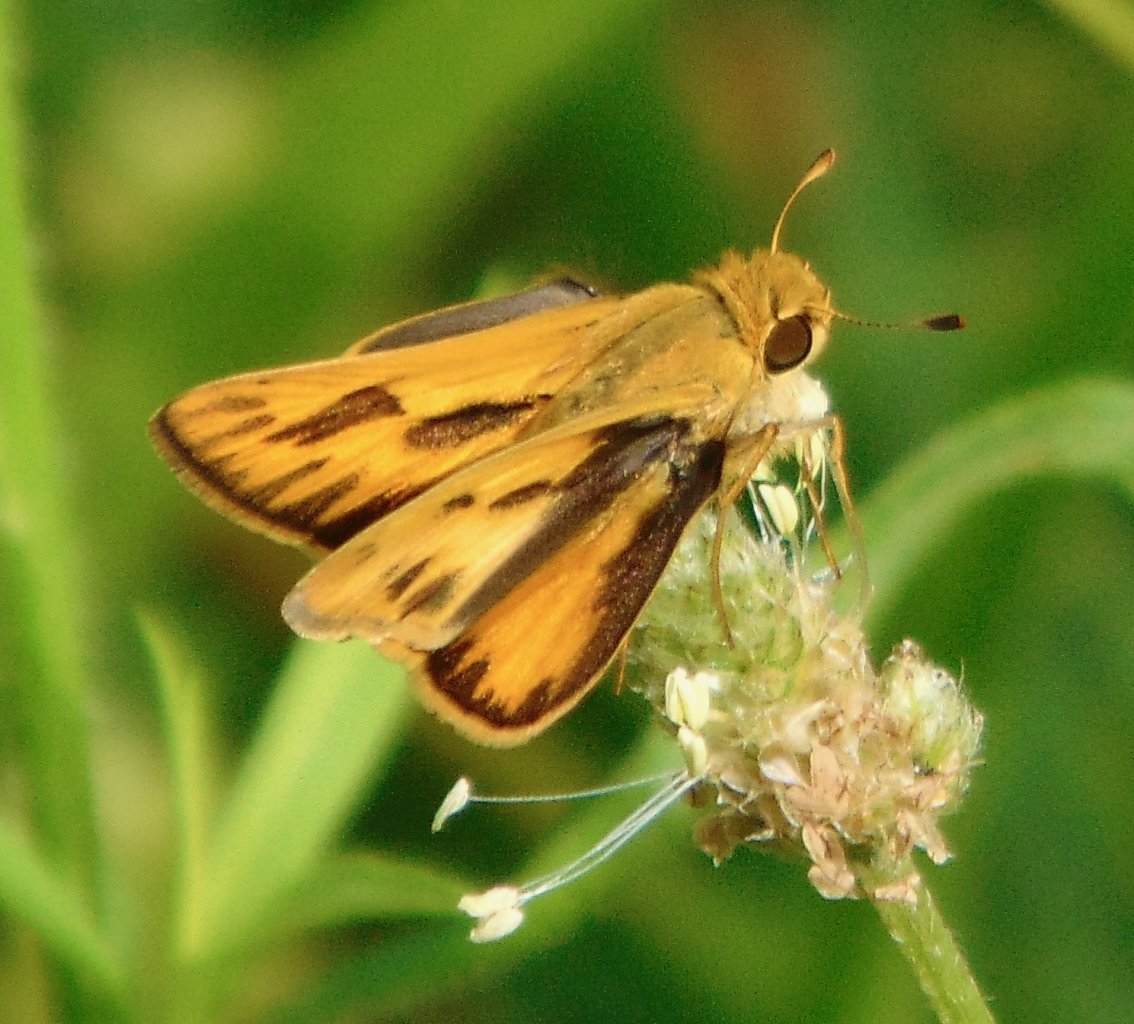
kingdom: Animalia
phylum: Arthropoda
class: Insecta
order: Lepidoptera
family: Hesperiidae
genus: Hylephila
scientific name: Hylephila phyleus
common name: Fiery Skipper
